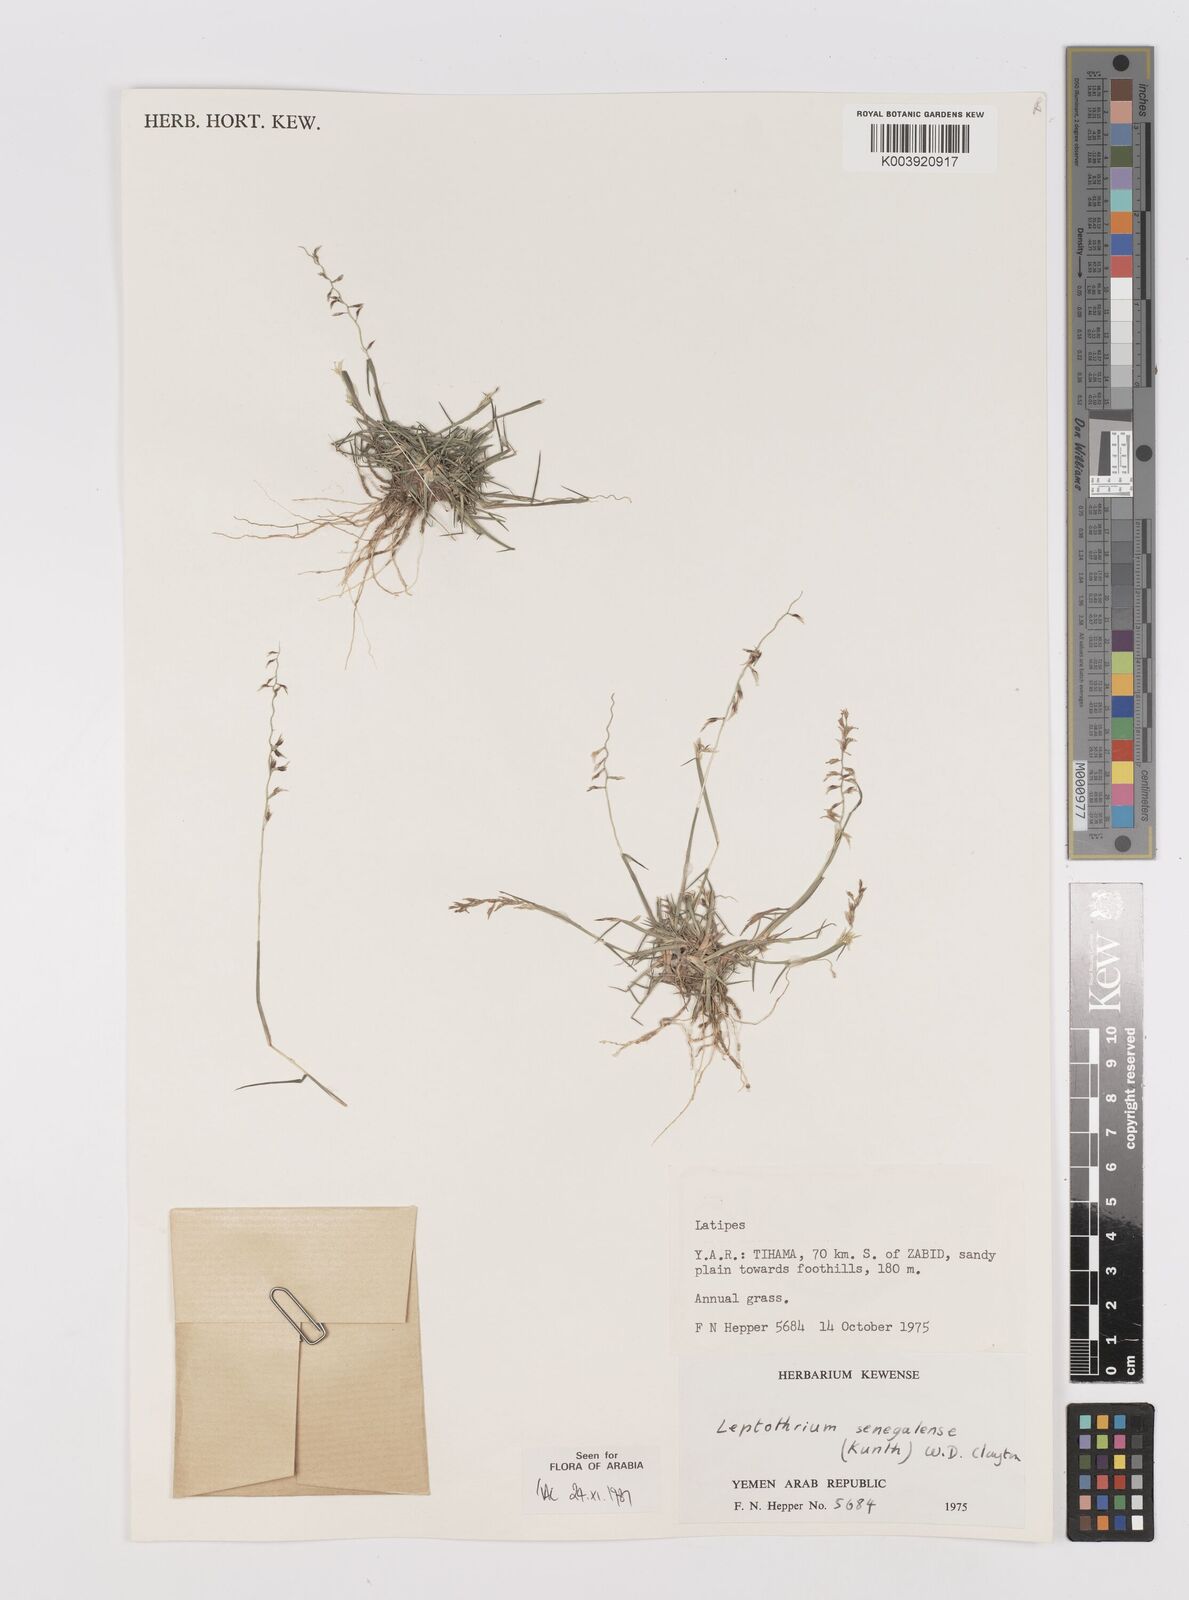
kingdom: Plantae
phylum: Tracheophyta
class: Liliopsida
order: Poales
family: Poaceae
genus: Leptothrium
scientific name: Leptothrium senegalense
